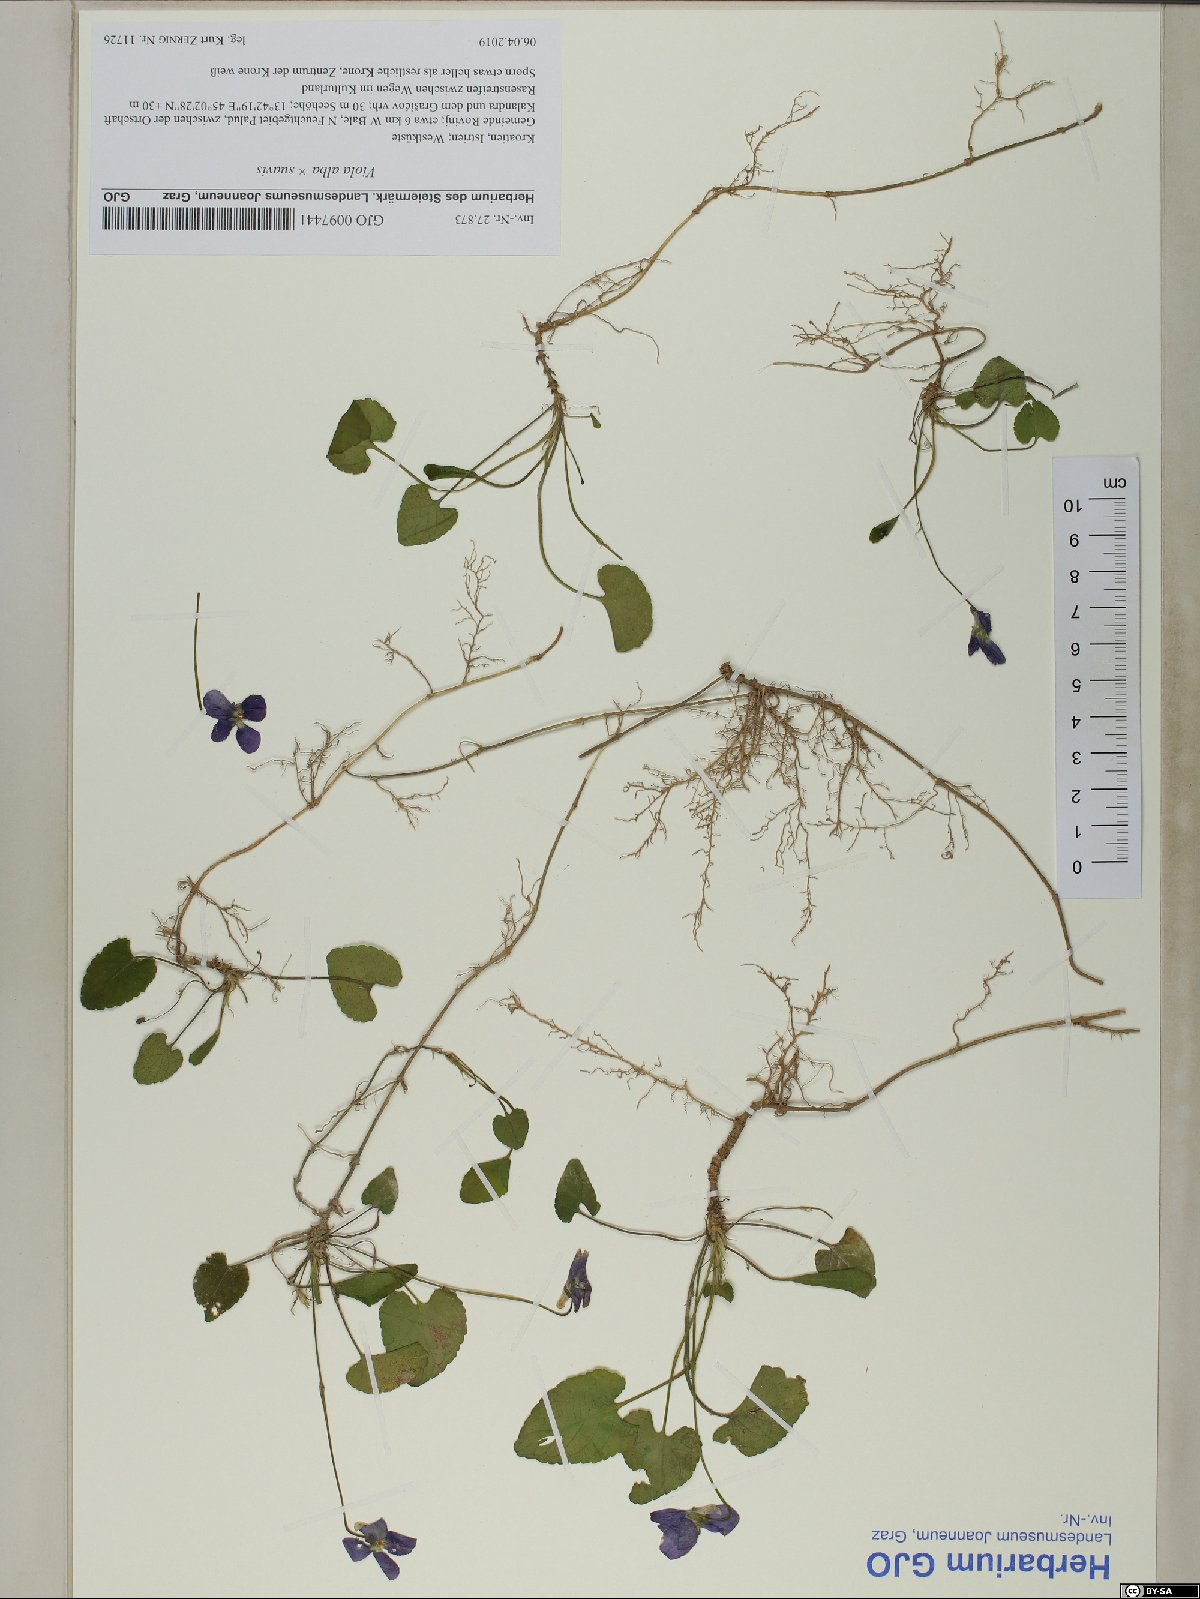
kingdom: Plantae
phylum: Tracheophyta
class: Magnoliopsida
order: Malpighiales
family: Violaceae
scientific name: Violaceae
